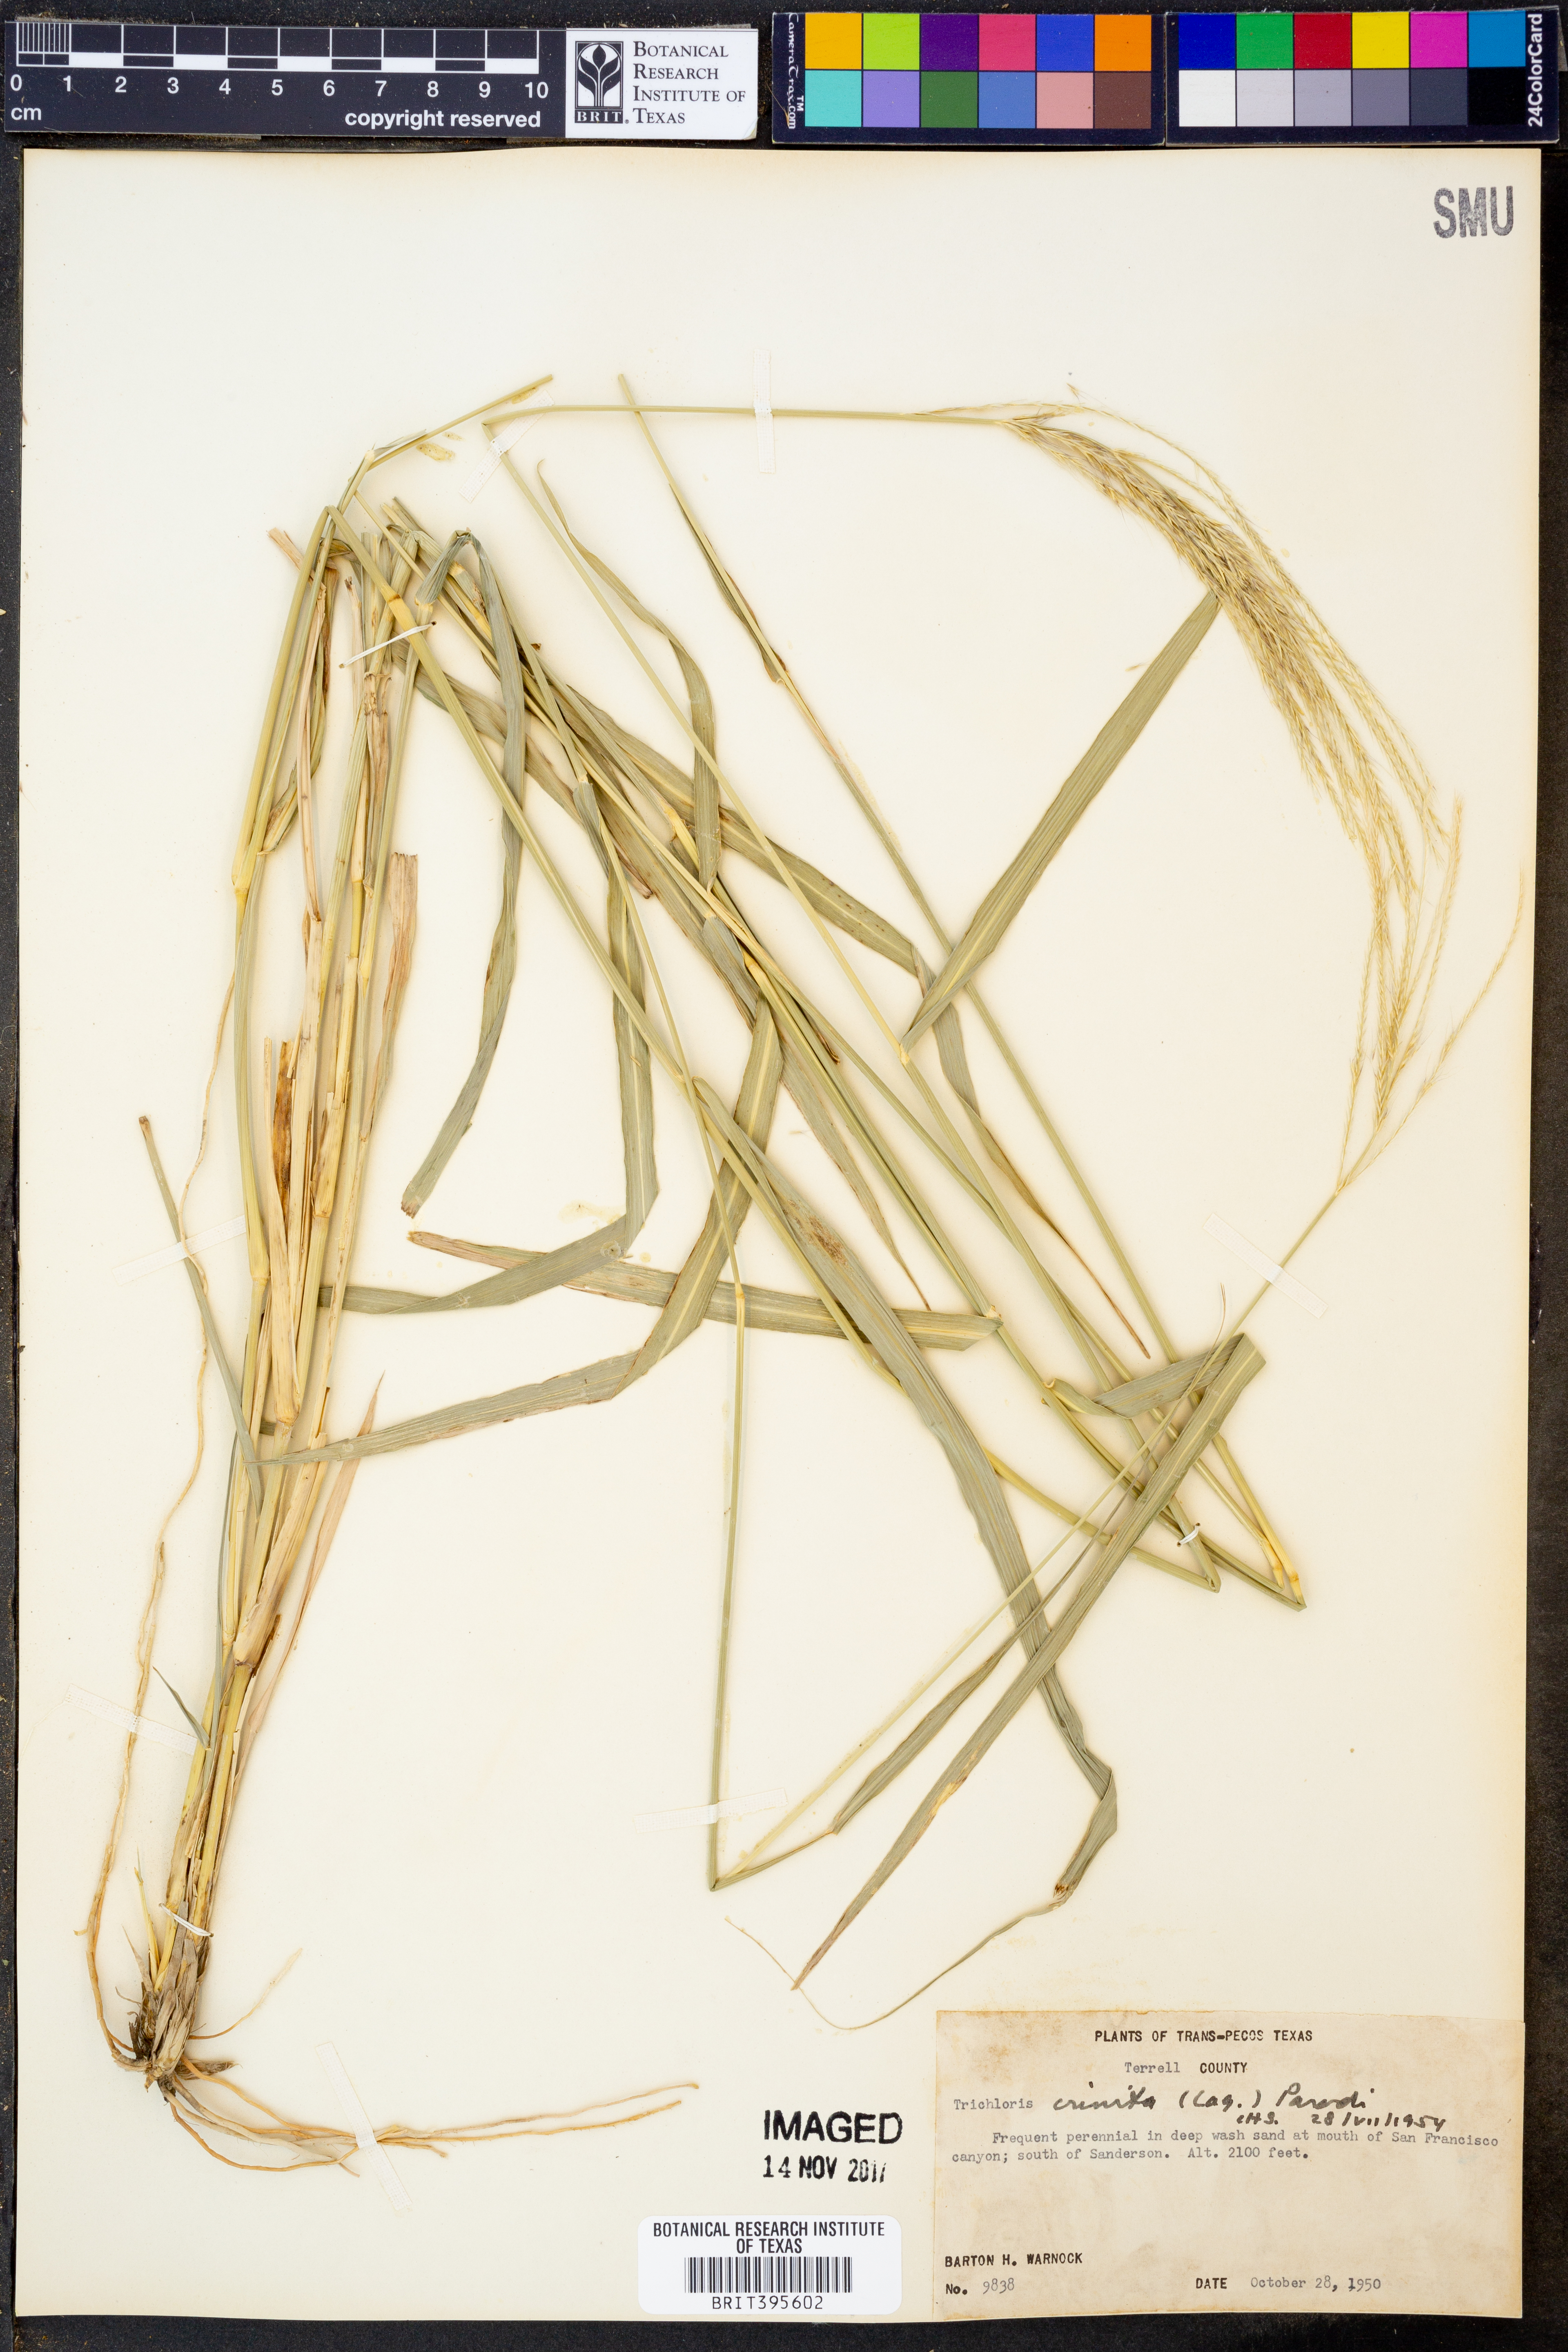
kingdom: Plantae
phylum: Tracheophyta
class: Liliopsida
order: Poales
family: Poaceae
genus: Leptochloa
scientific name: Leptochloa crinita
